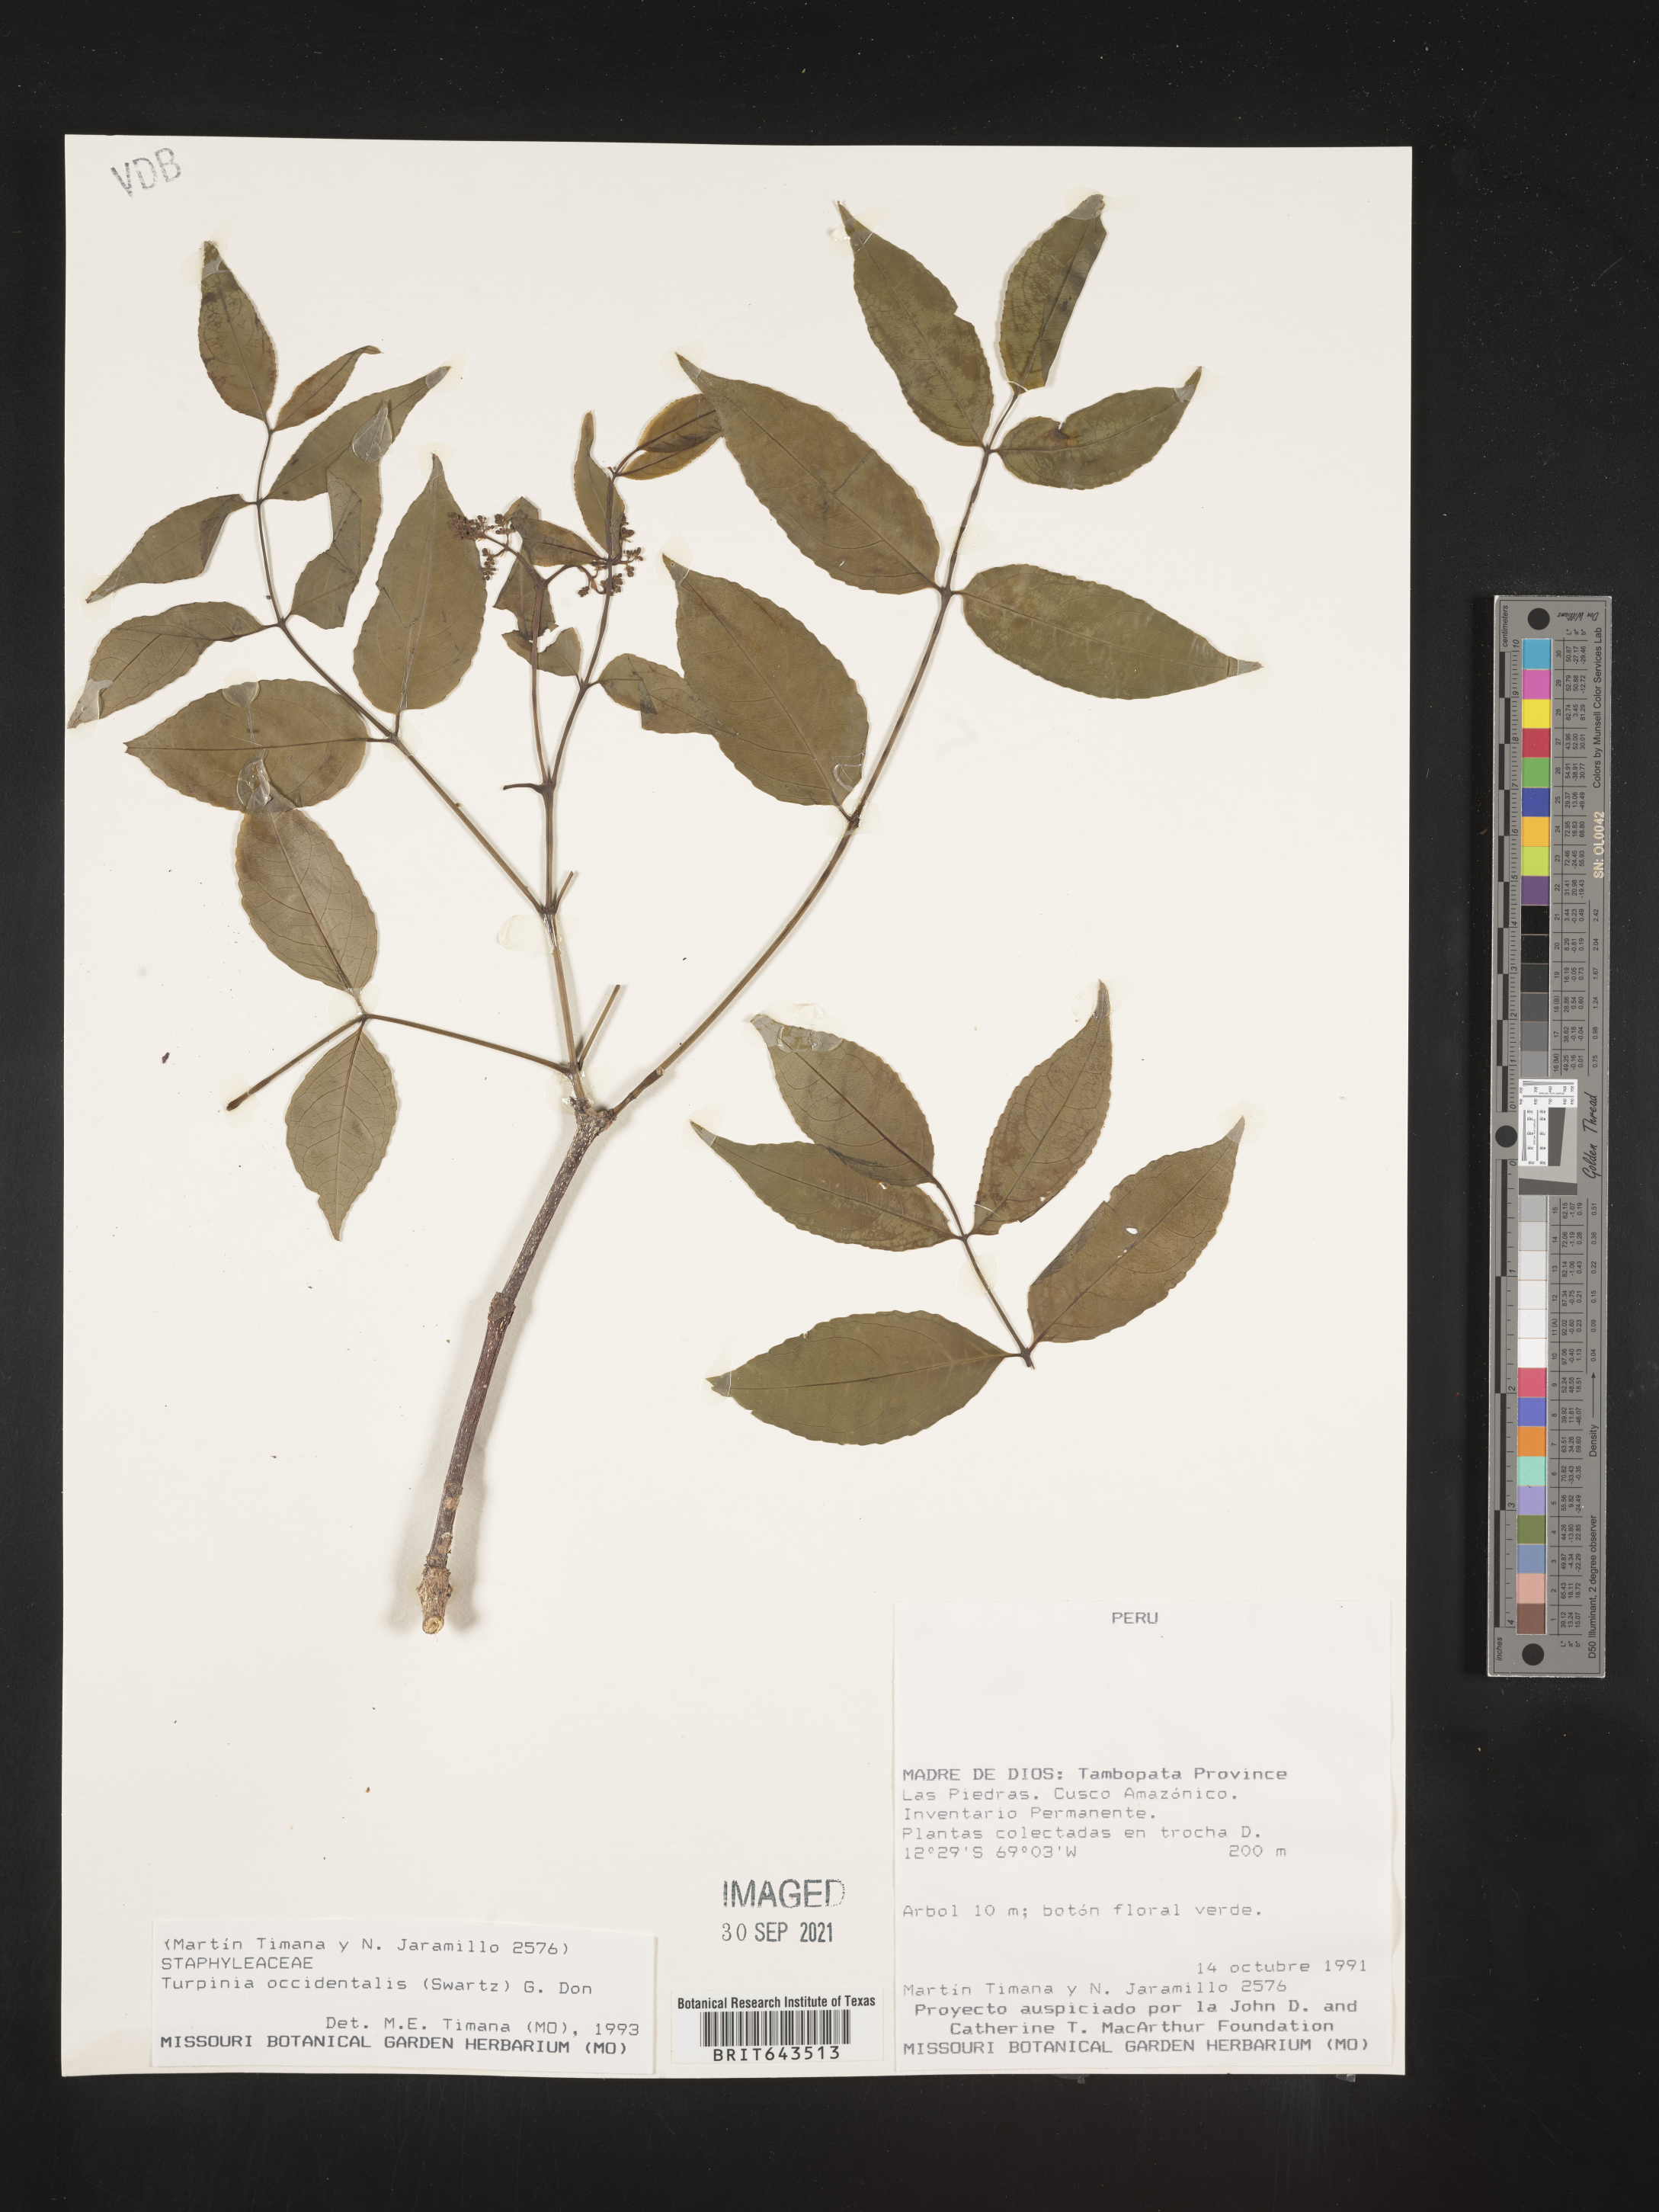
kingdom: Plantae
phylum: Tracheophyta
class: Magnoliopsida
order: Crossosomatales
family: Staphyleaceae
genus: Turpinia
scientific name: Turpinia
